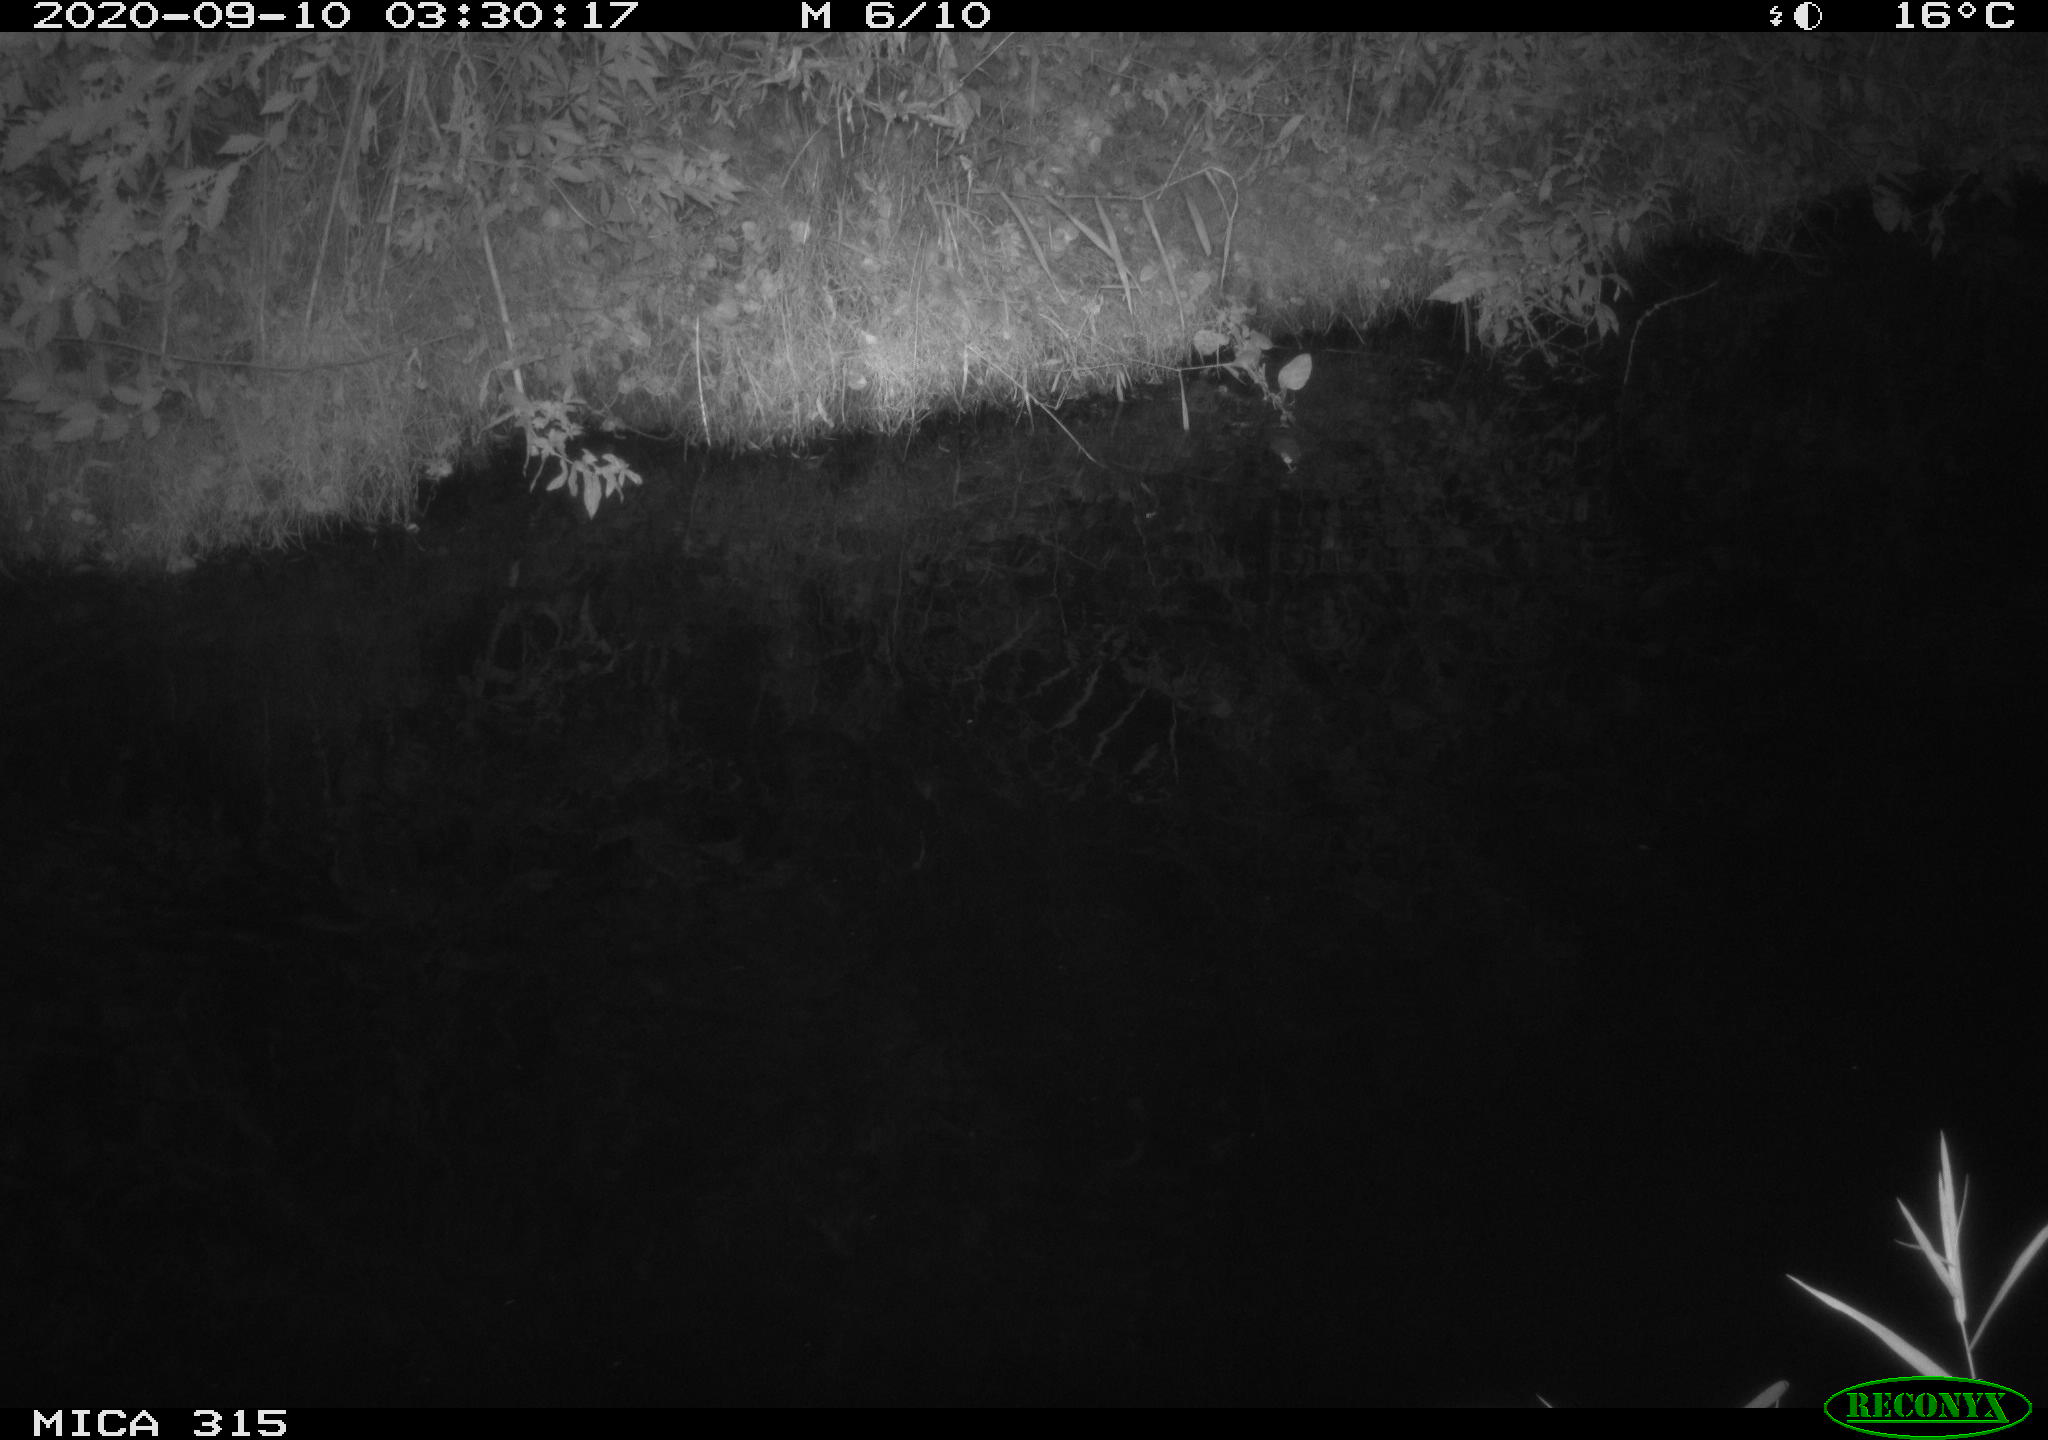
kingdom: Animalia
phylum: Chordata
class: Aves
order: Anseriformes
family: Anatidae
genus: Anas
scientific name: Anas platyrhynchos
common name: Mallard
